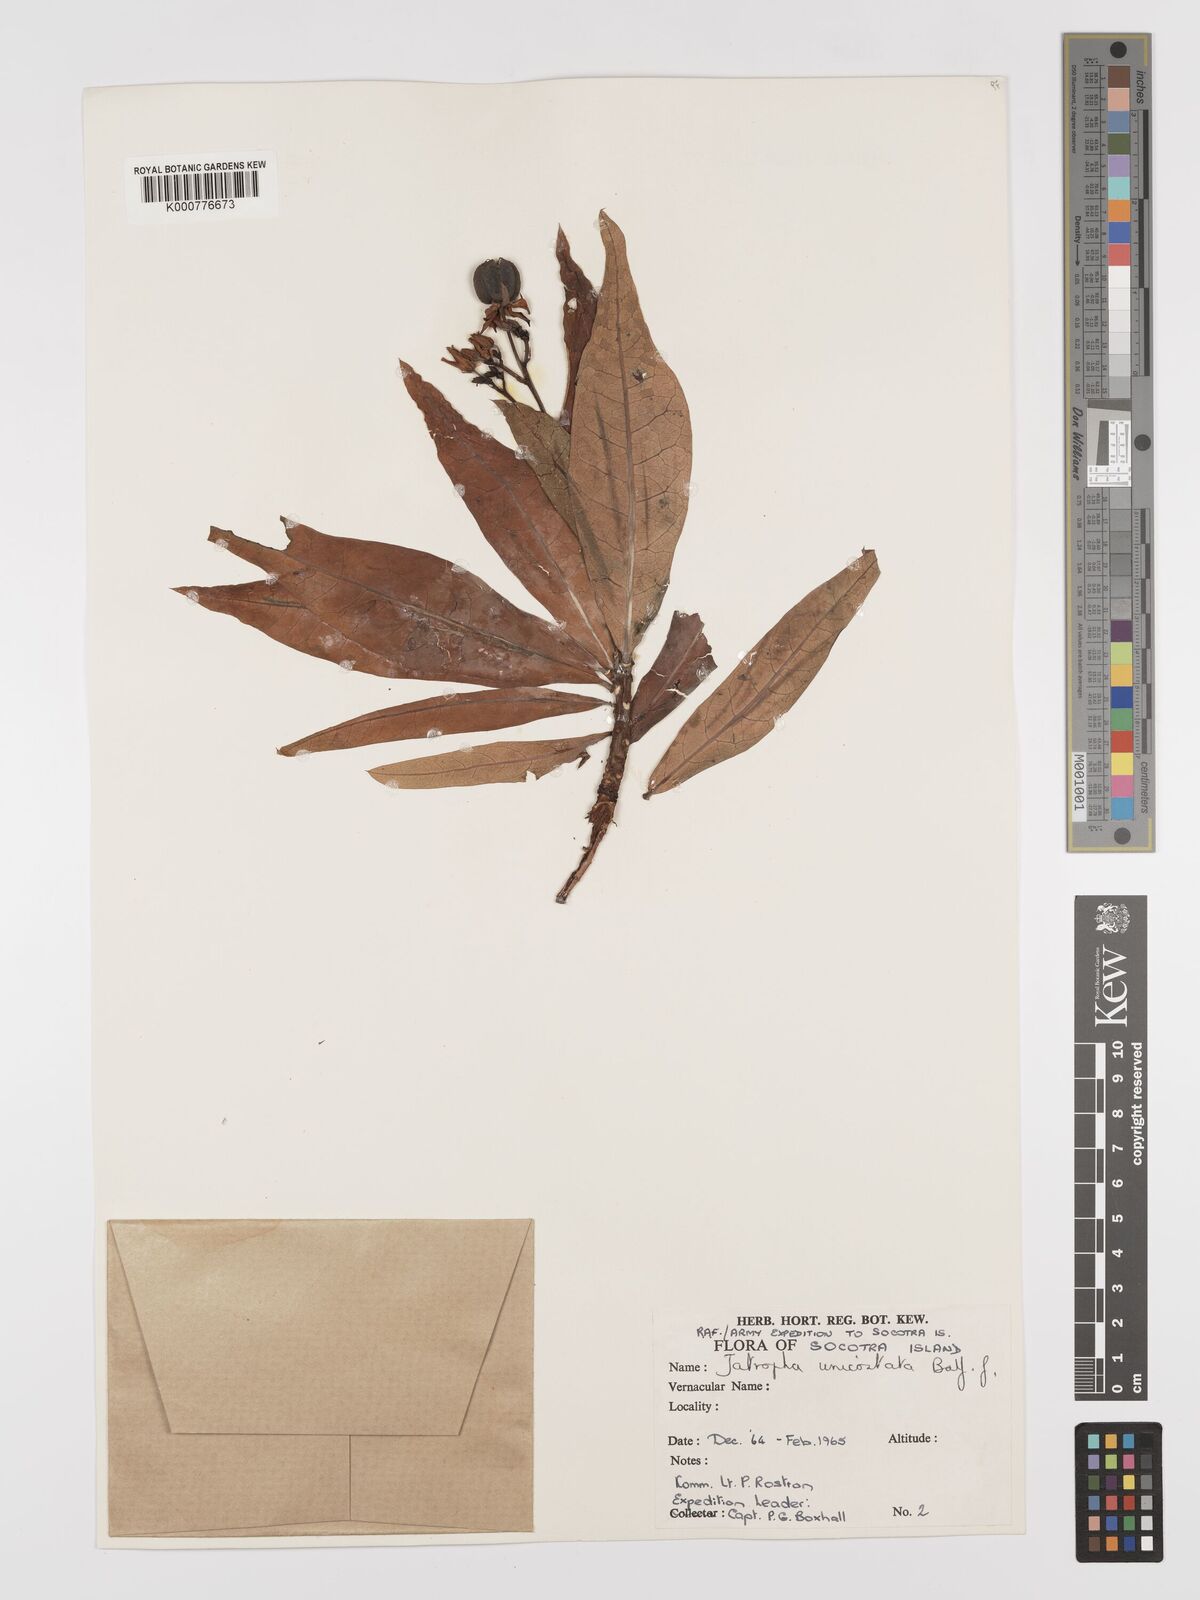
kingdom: Plantae
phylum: Tracheophyta
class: Magnoliopsida
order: Malpighiales
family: Euphorbiaceae
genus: Jatropha
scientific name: Jatropha unicostata
